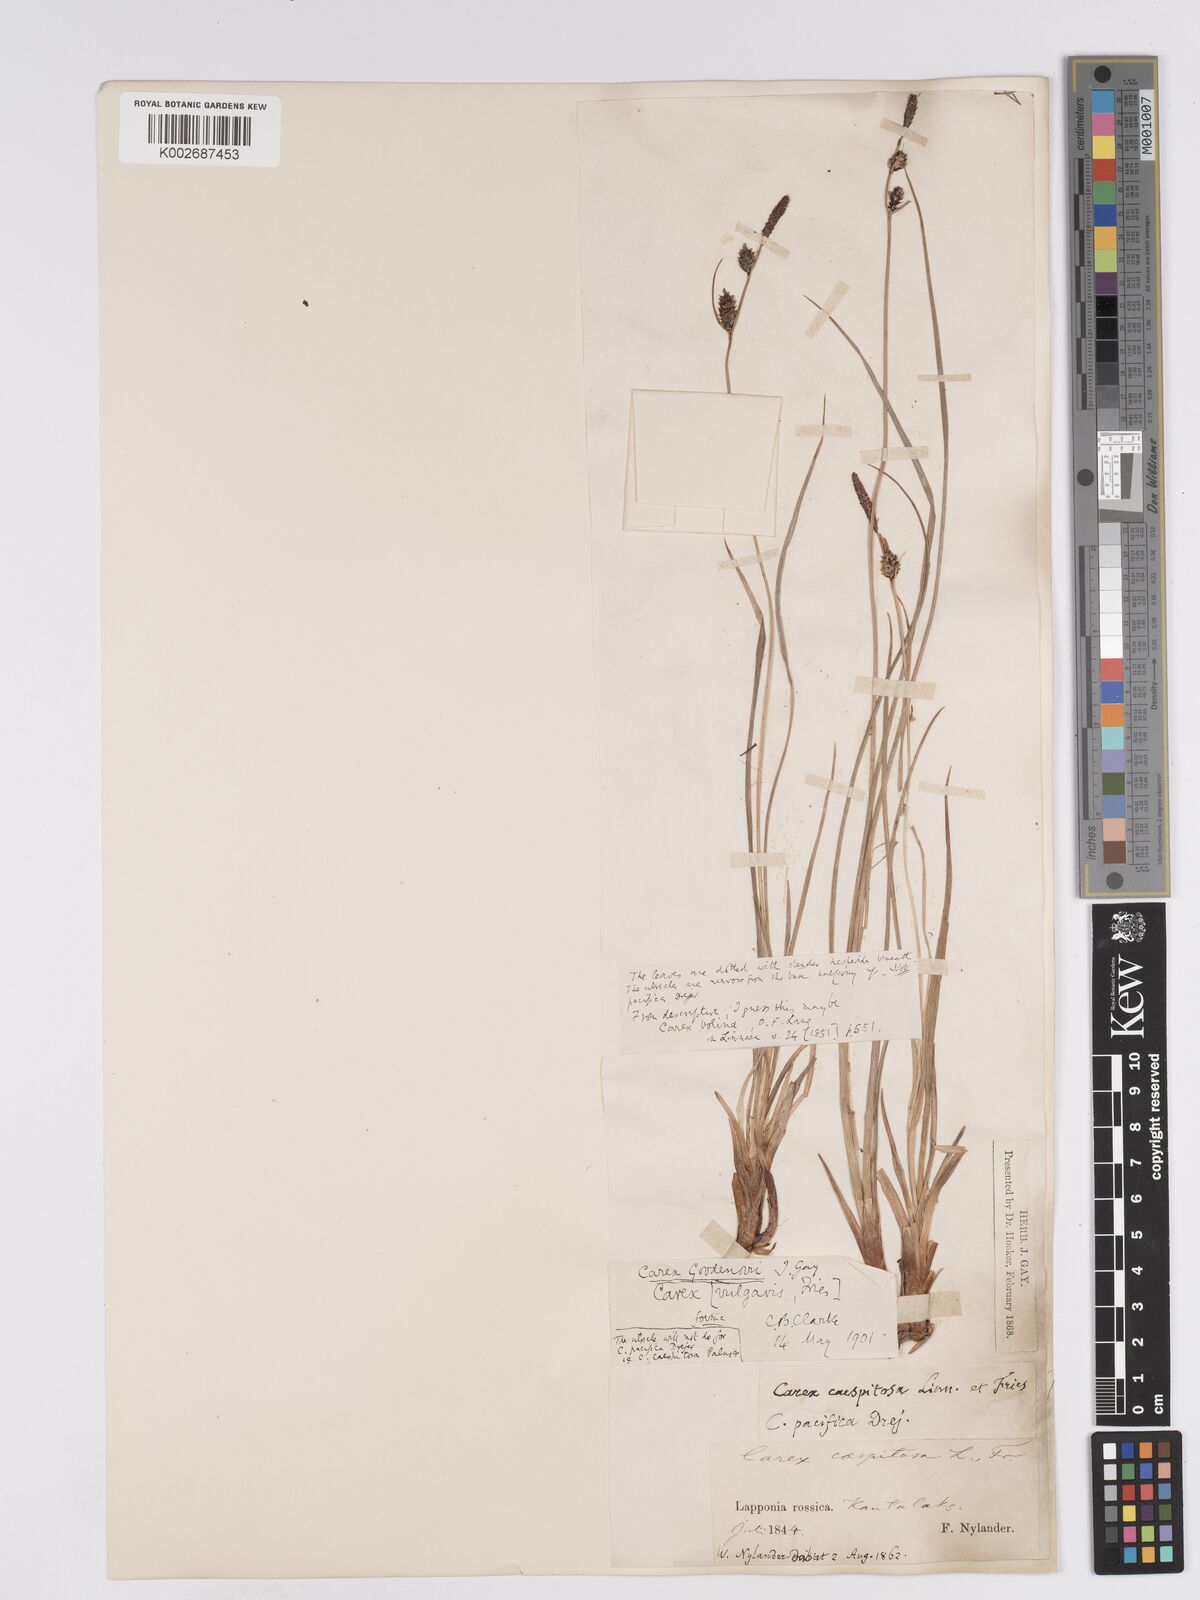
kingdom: Plantae
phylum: Tracheophyta
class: Liliopsida
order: Poales
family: Cyperaceae
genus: Carex
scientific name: Carex nigra
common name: Common sedge
